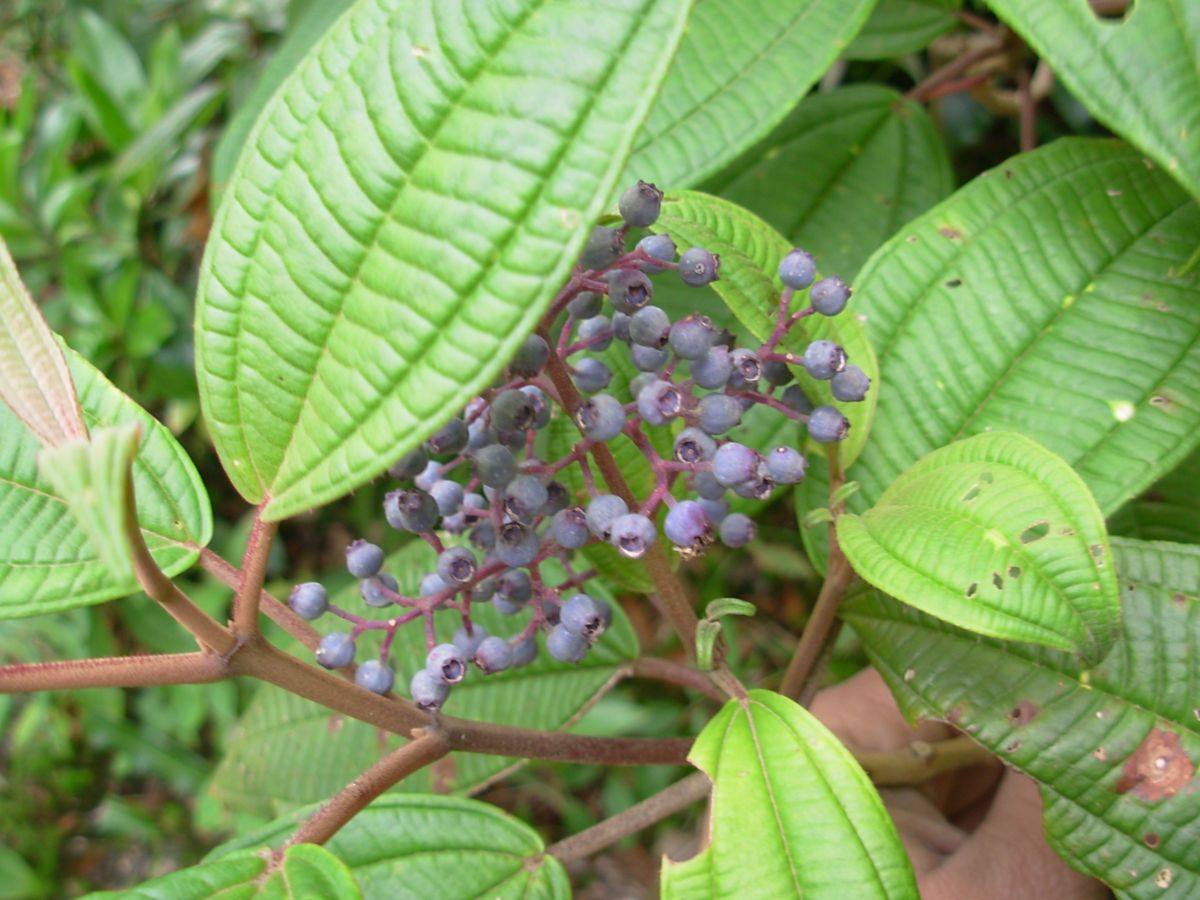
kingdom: Plantae
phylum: Tracheophyta
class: Magnoliopsida
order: Myrtales
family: Melastomataceae
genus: Miconia
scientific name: Miconia
